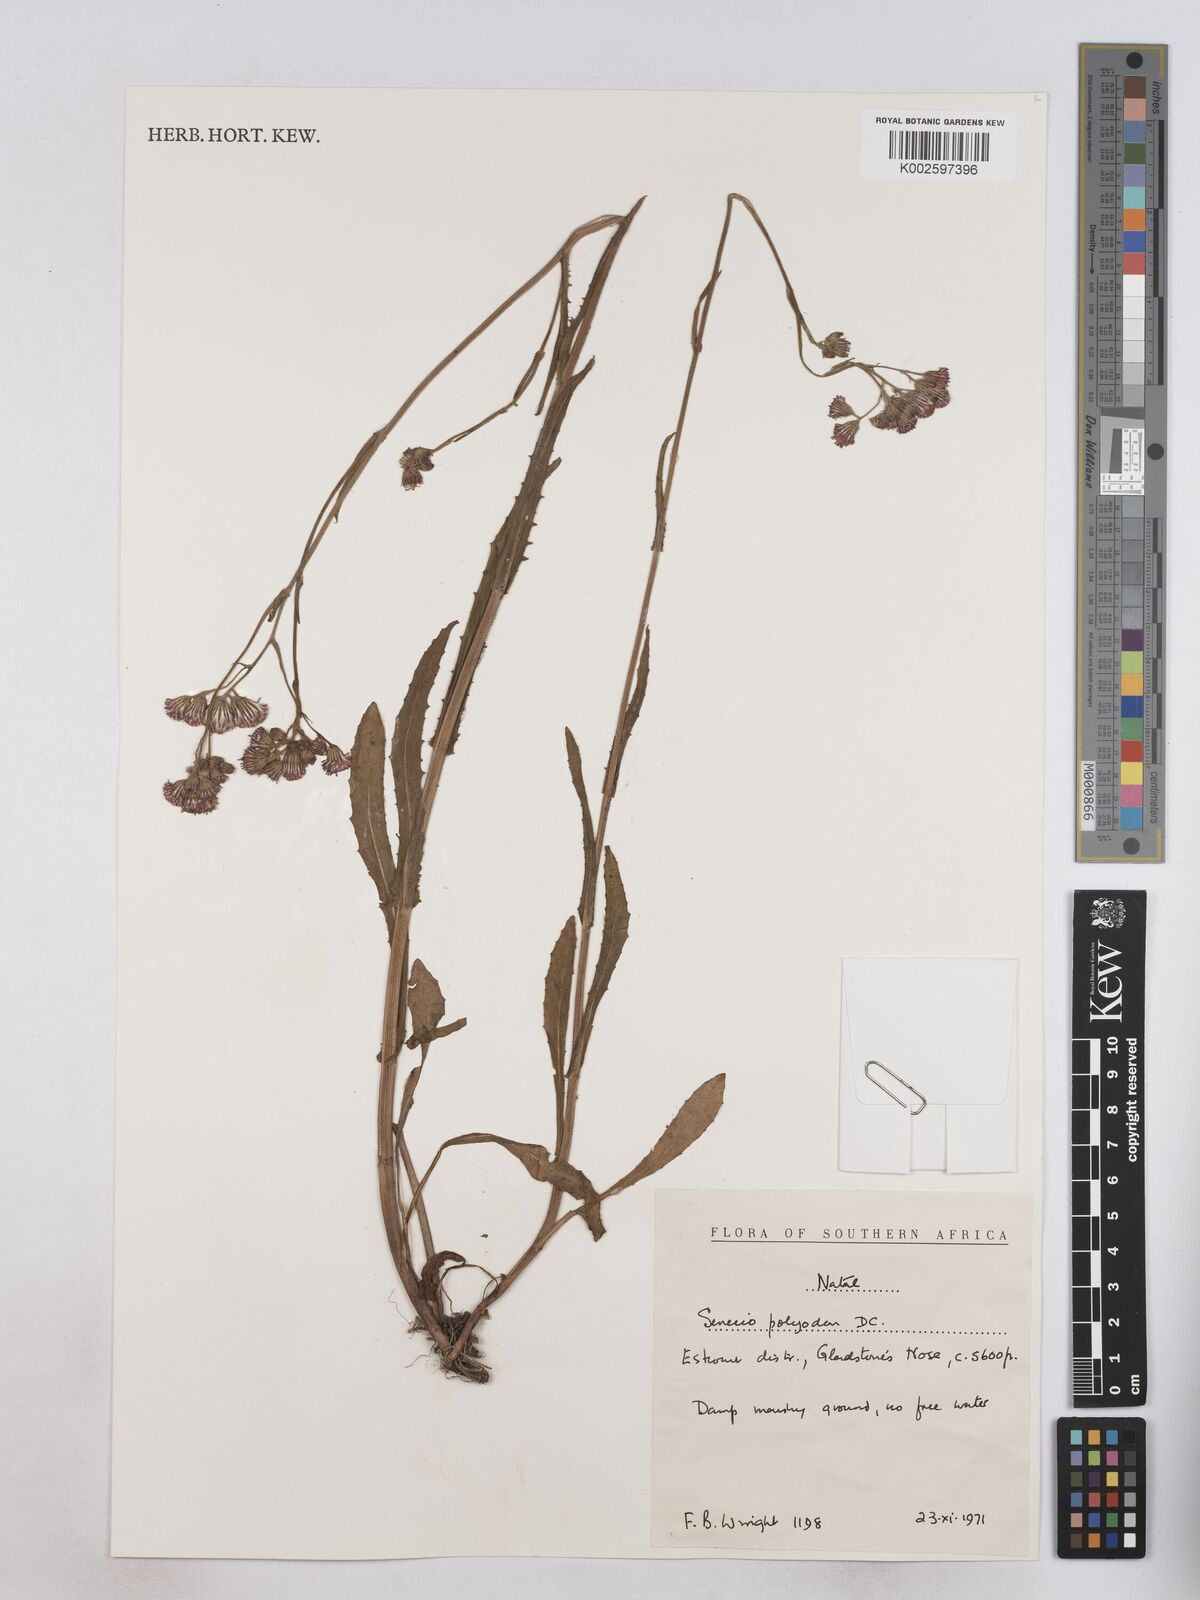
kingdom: Plantae
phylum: Tracheophyta
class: Magnoliopsida
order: Asterales
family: Asteraceae
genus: Senecio
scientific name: Senecio polyodon
